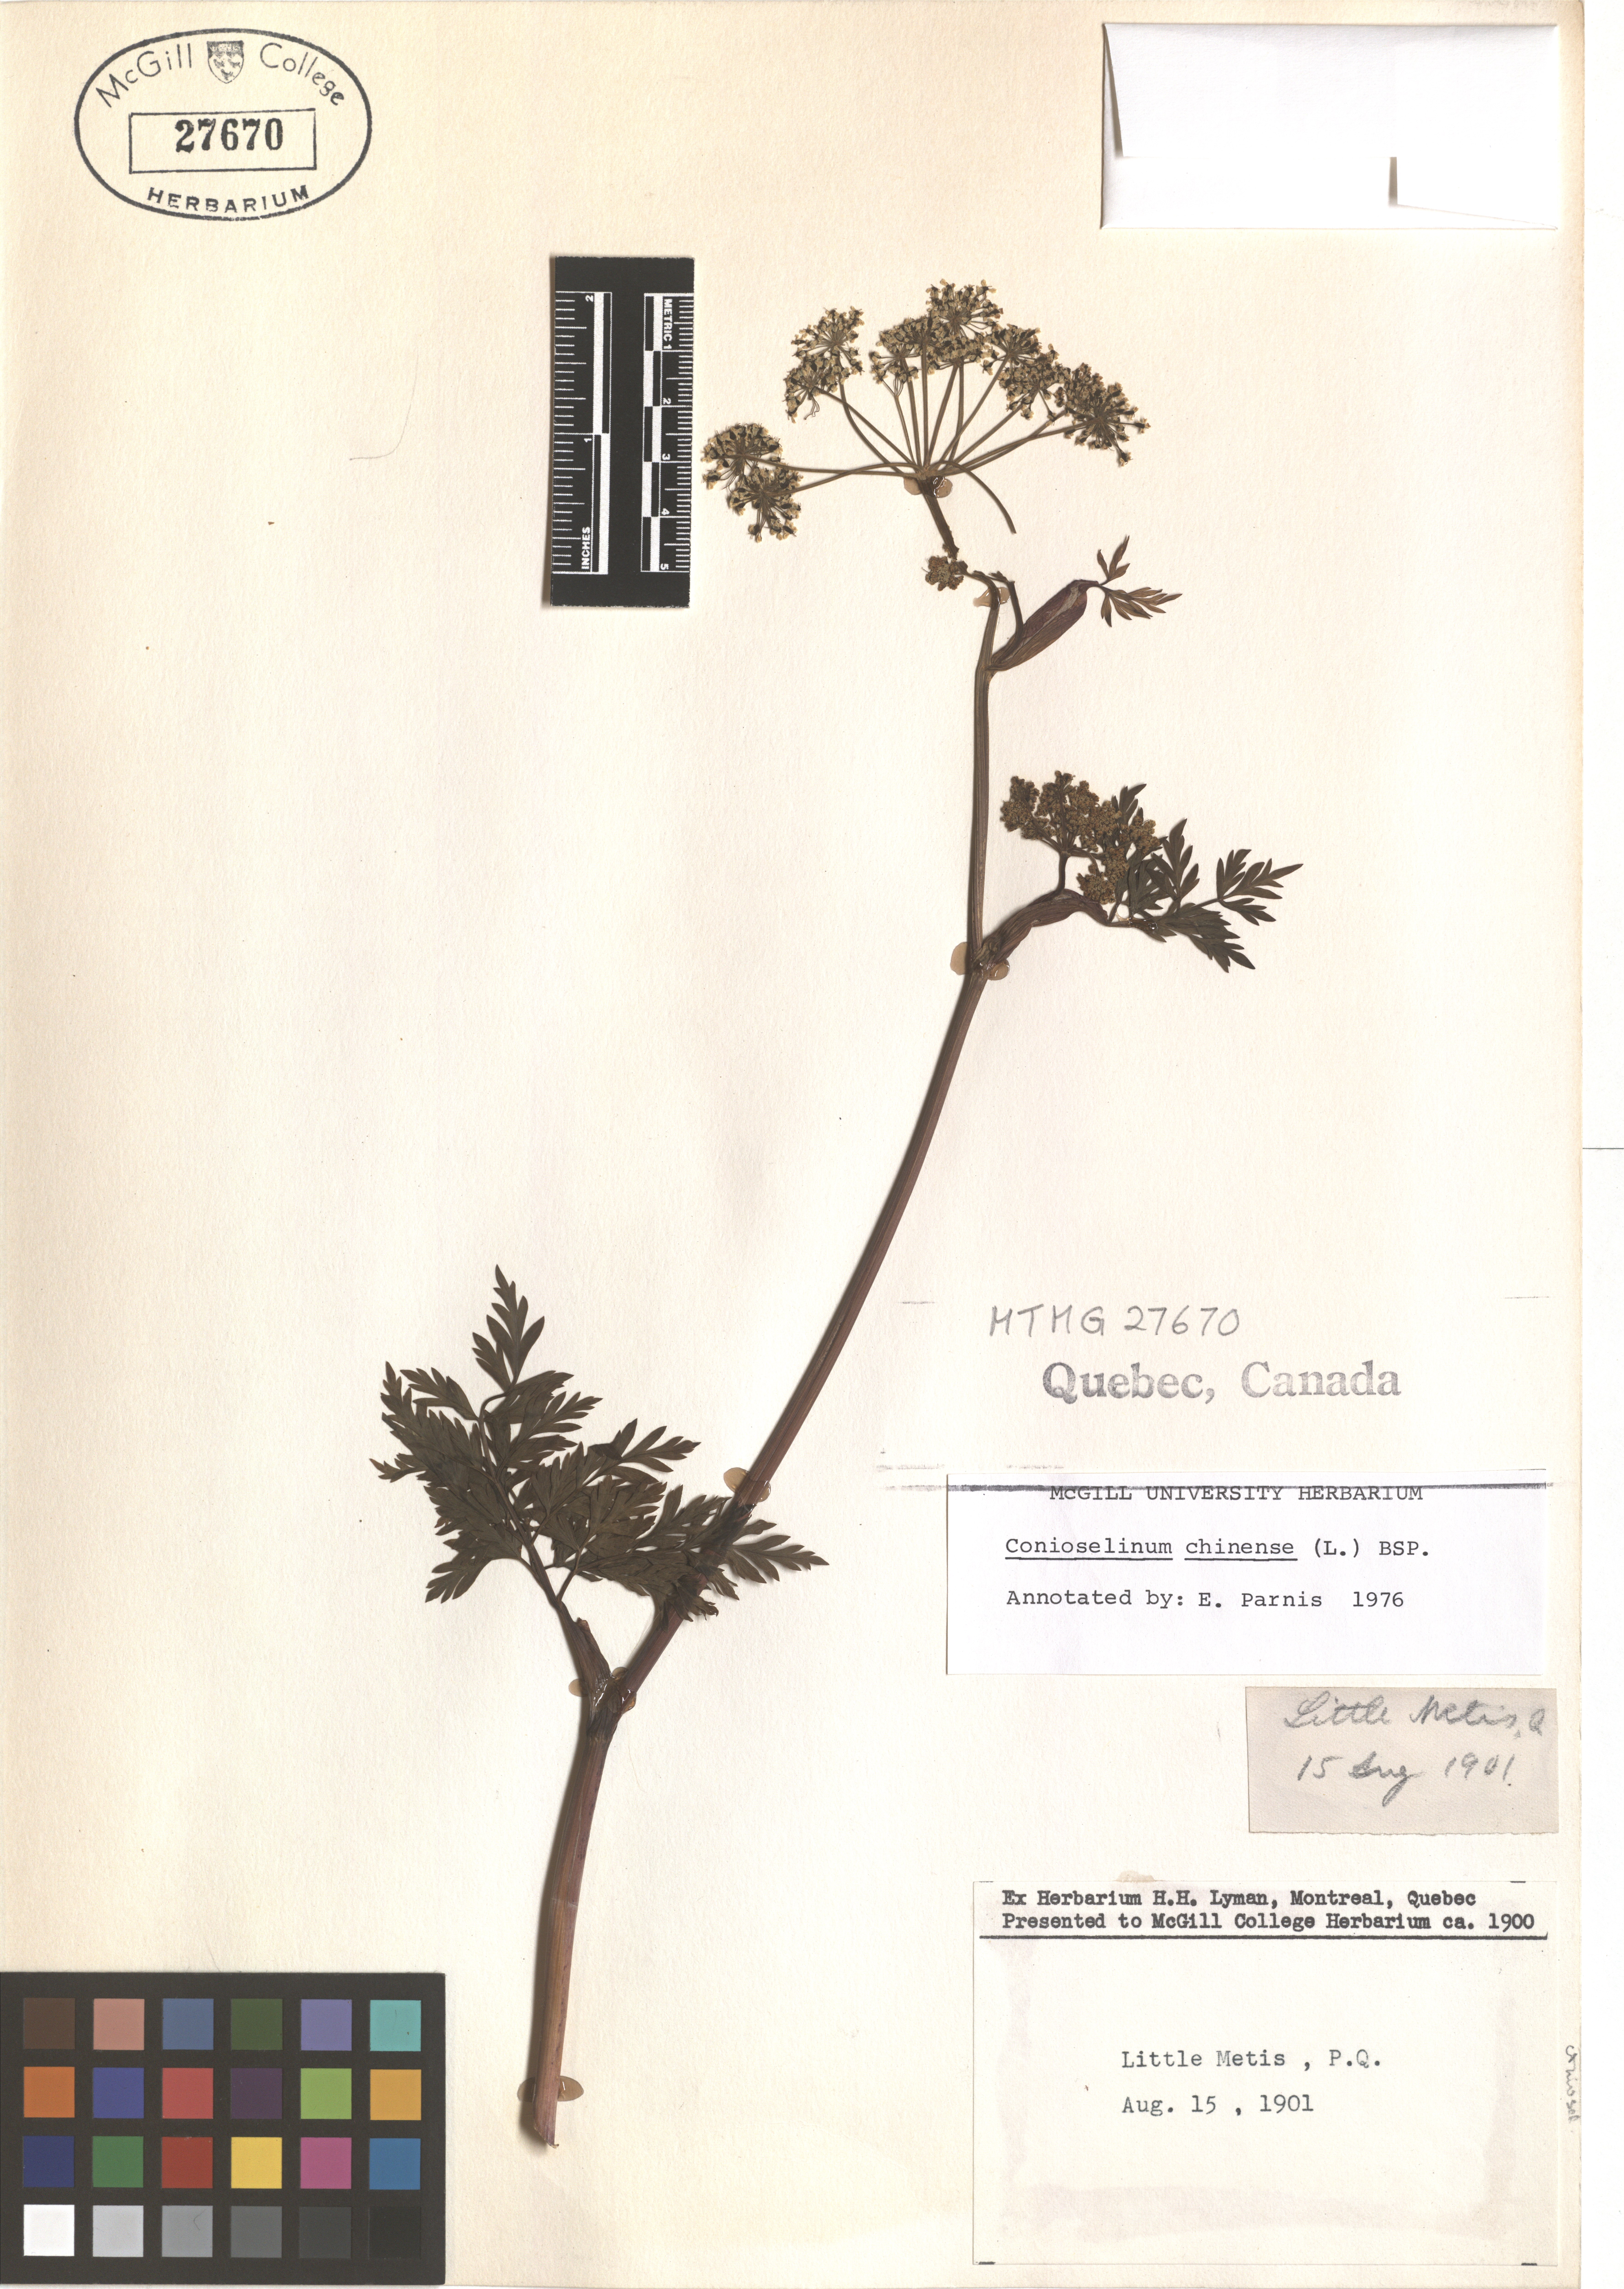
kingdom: Plantae
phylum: Tracheophyta
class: Magnoliopsida
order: Apiales
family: Apiaceae
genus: Kreidion
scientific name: Kreidion chinensis
